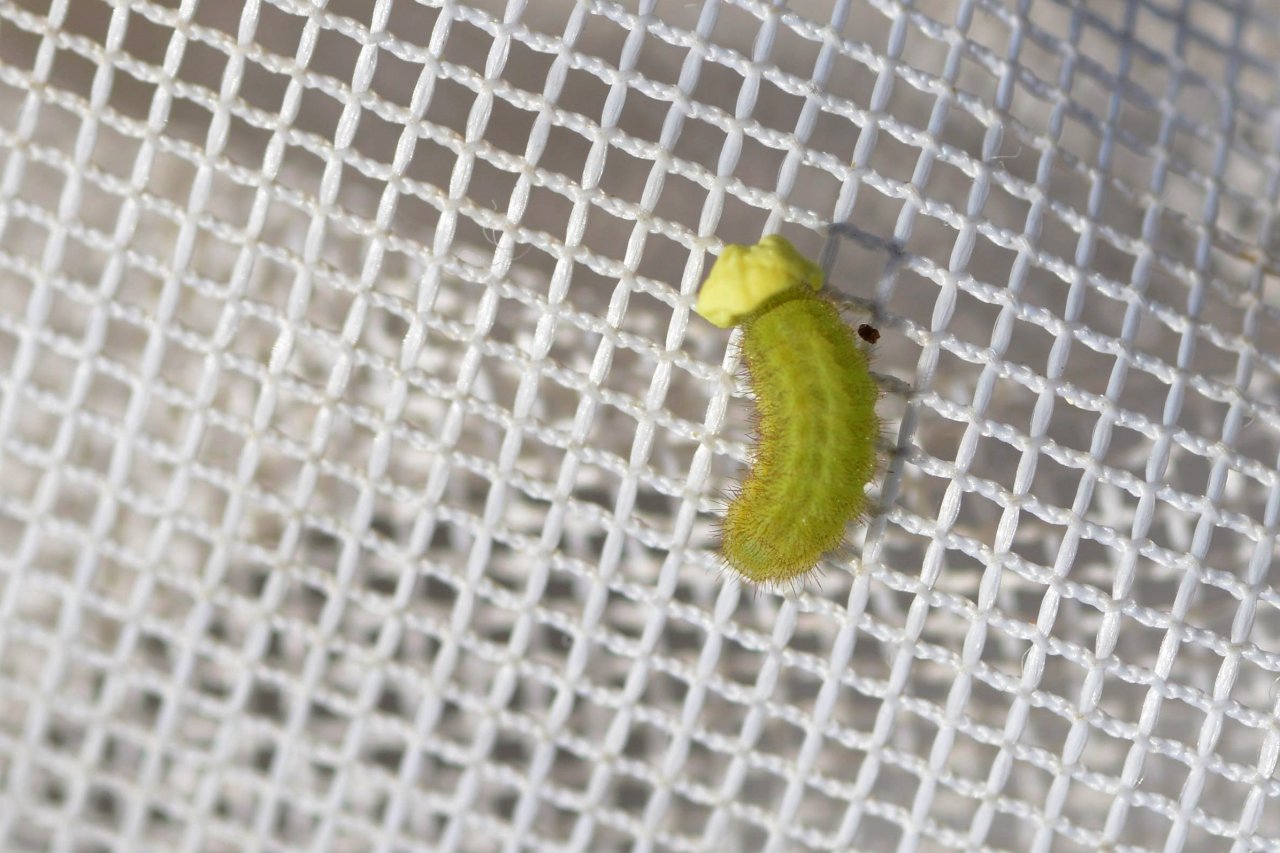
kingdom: Animalia
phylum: Arthropoda
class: Insecta
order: Lepidoptera
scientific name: Lepidoptera
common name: Butterflies
